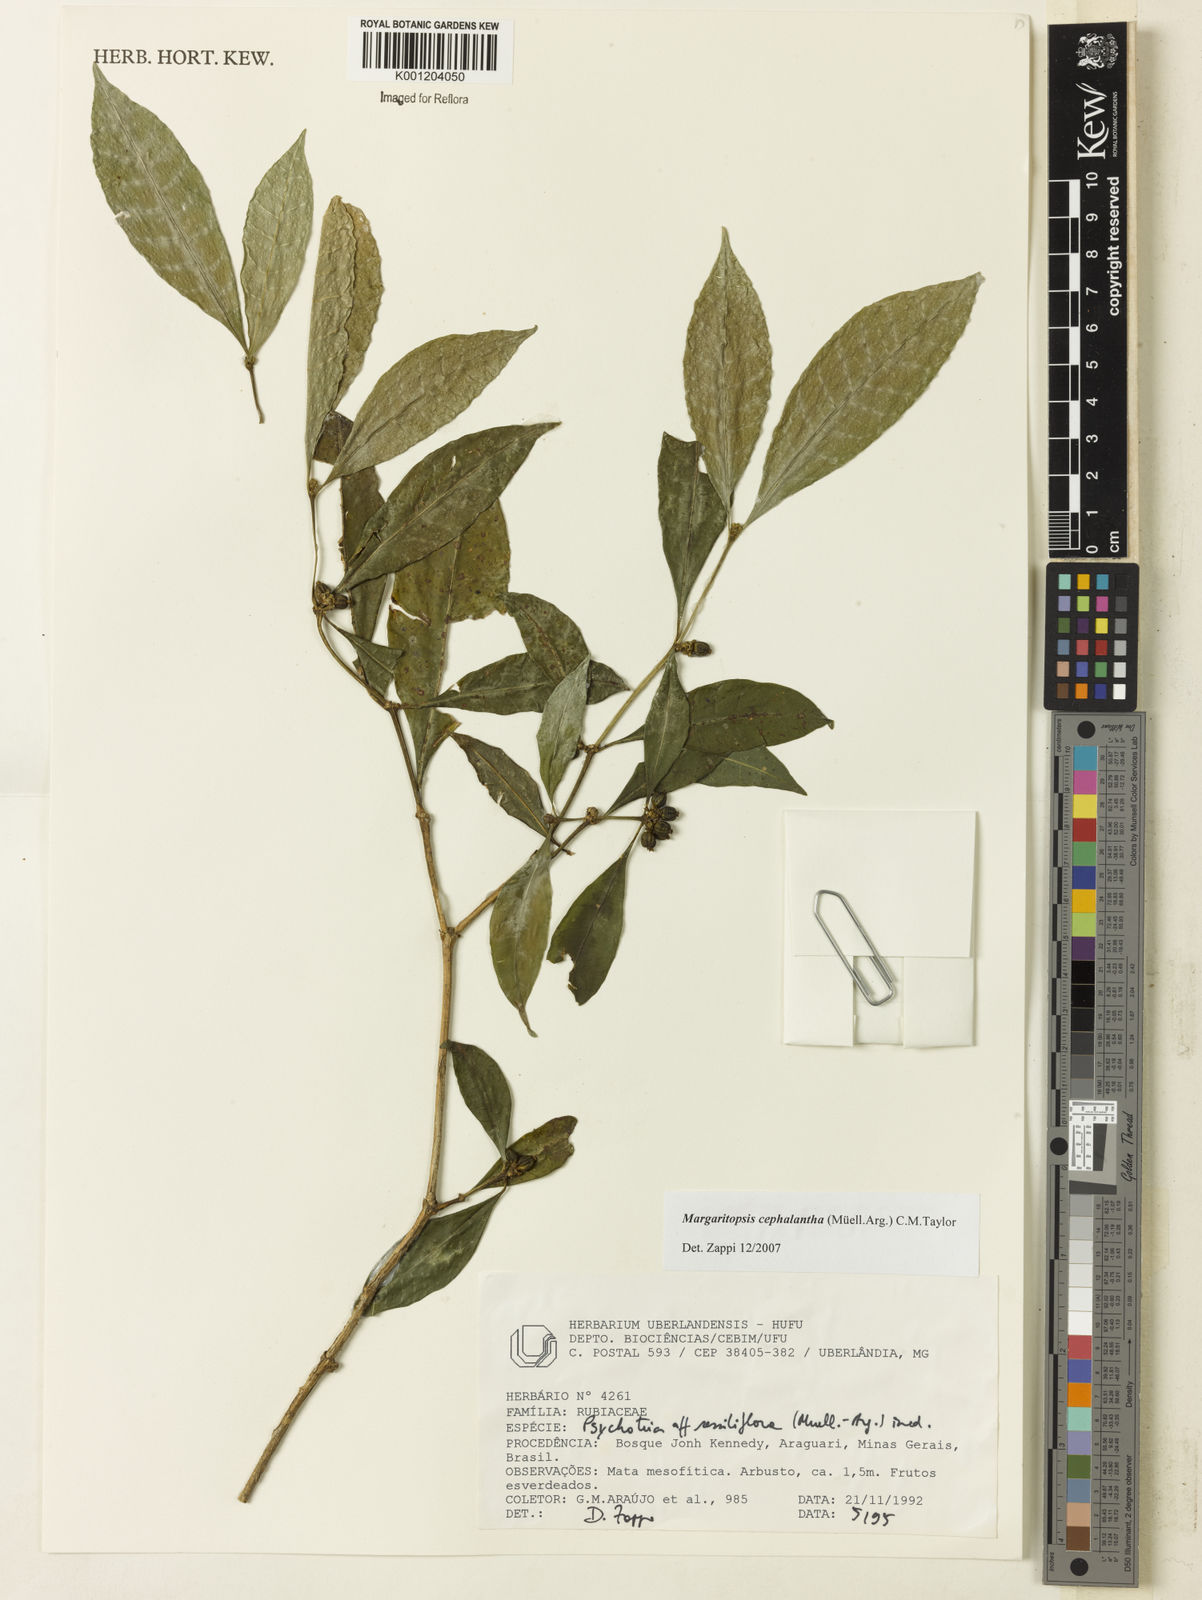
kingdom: Plantae
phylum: Tracheophyta
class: Magnoliopsida
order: Gentianales
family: Rubiaceae
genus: Eumachia
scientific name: Eumachia
